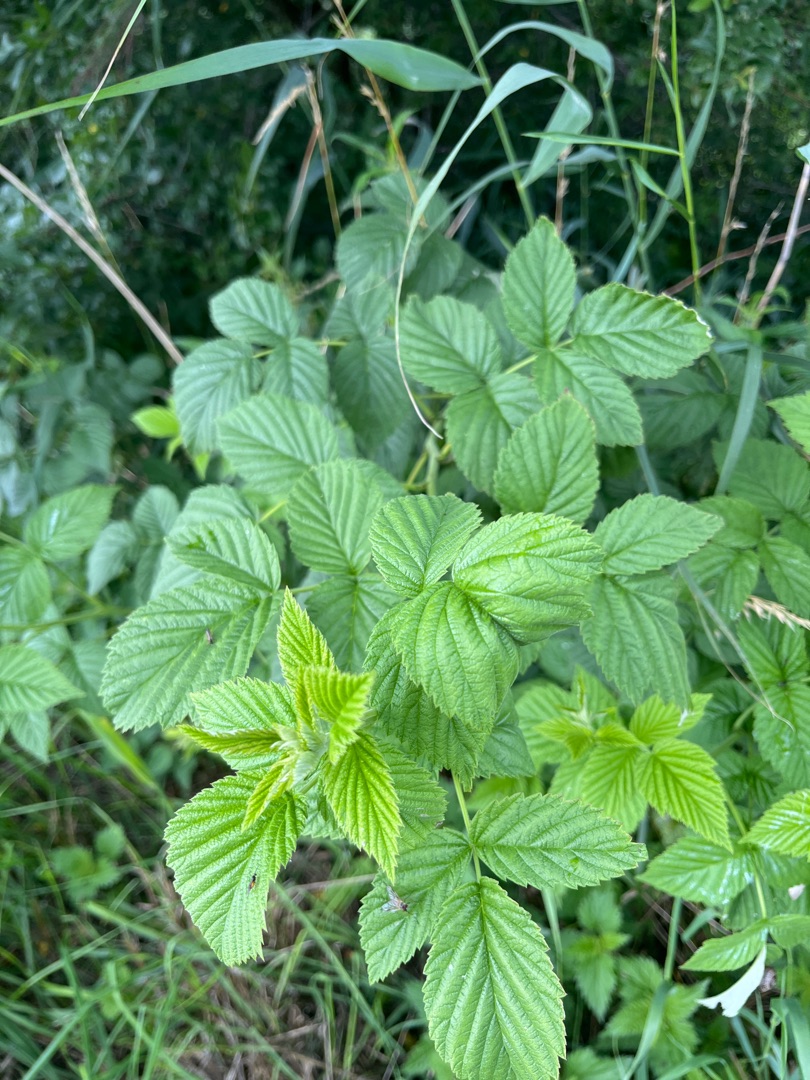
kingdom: Plantae
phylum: Tracheophyta
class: Magnoliopsida
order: Rosales
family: Rosaceae
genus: Rubus
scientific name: Rubus idaeus
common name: Hindbær
